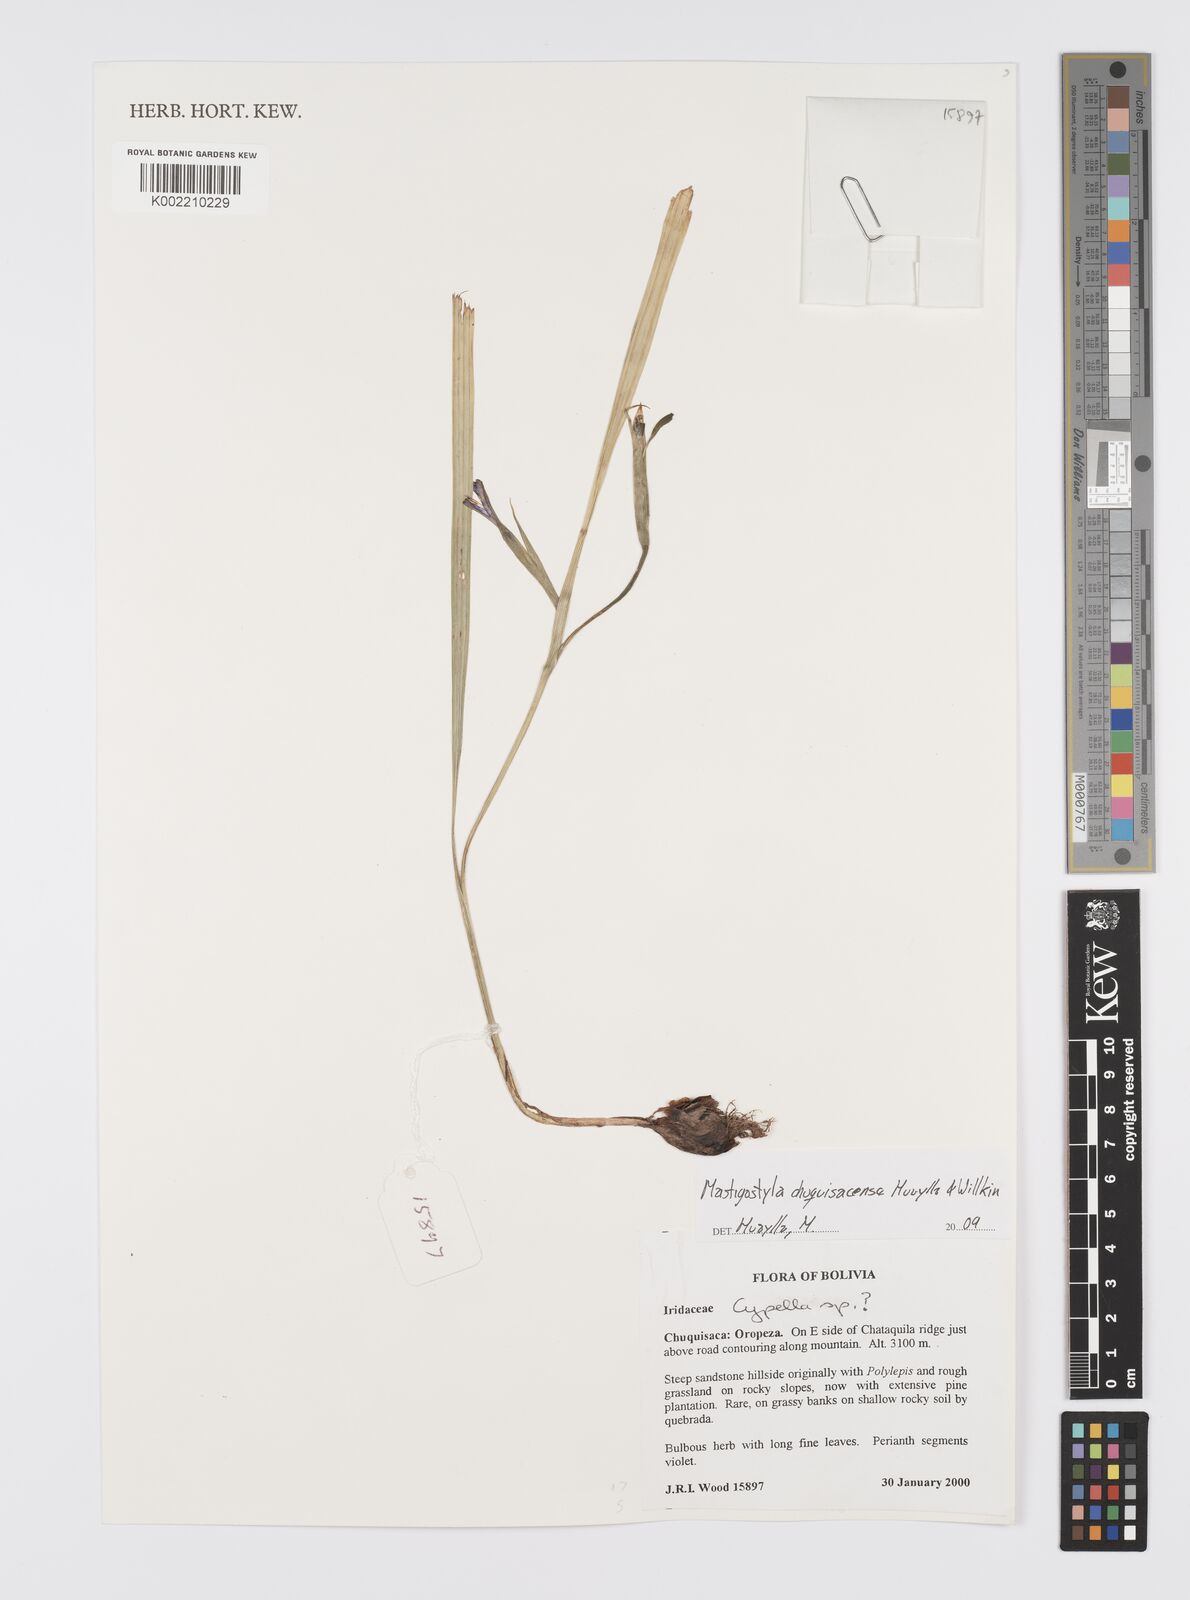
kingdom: Plantae
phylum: Tracheophyta
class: Liliopsida
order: Asparagales
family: Iridaceae
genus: Mastigostyla
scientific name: Mastigostyla chuquisacensis
